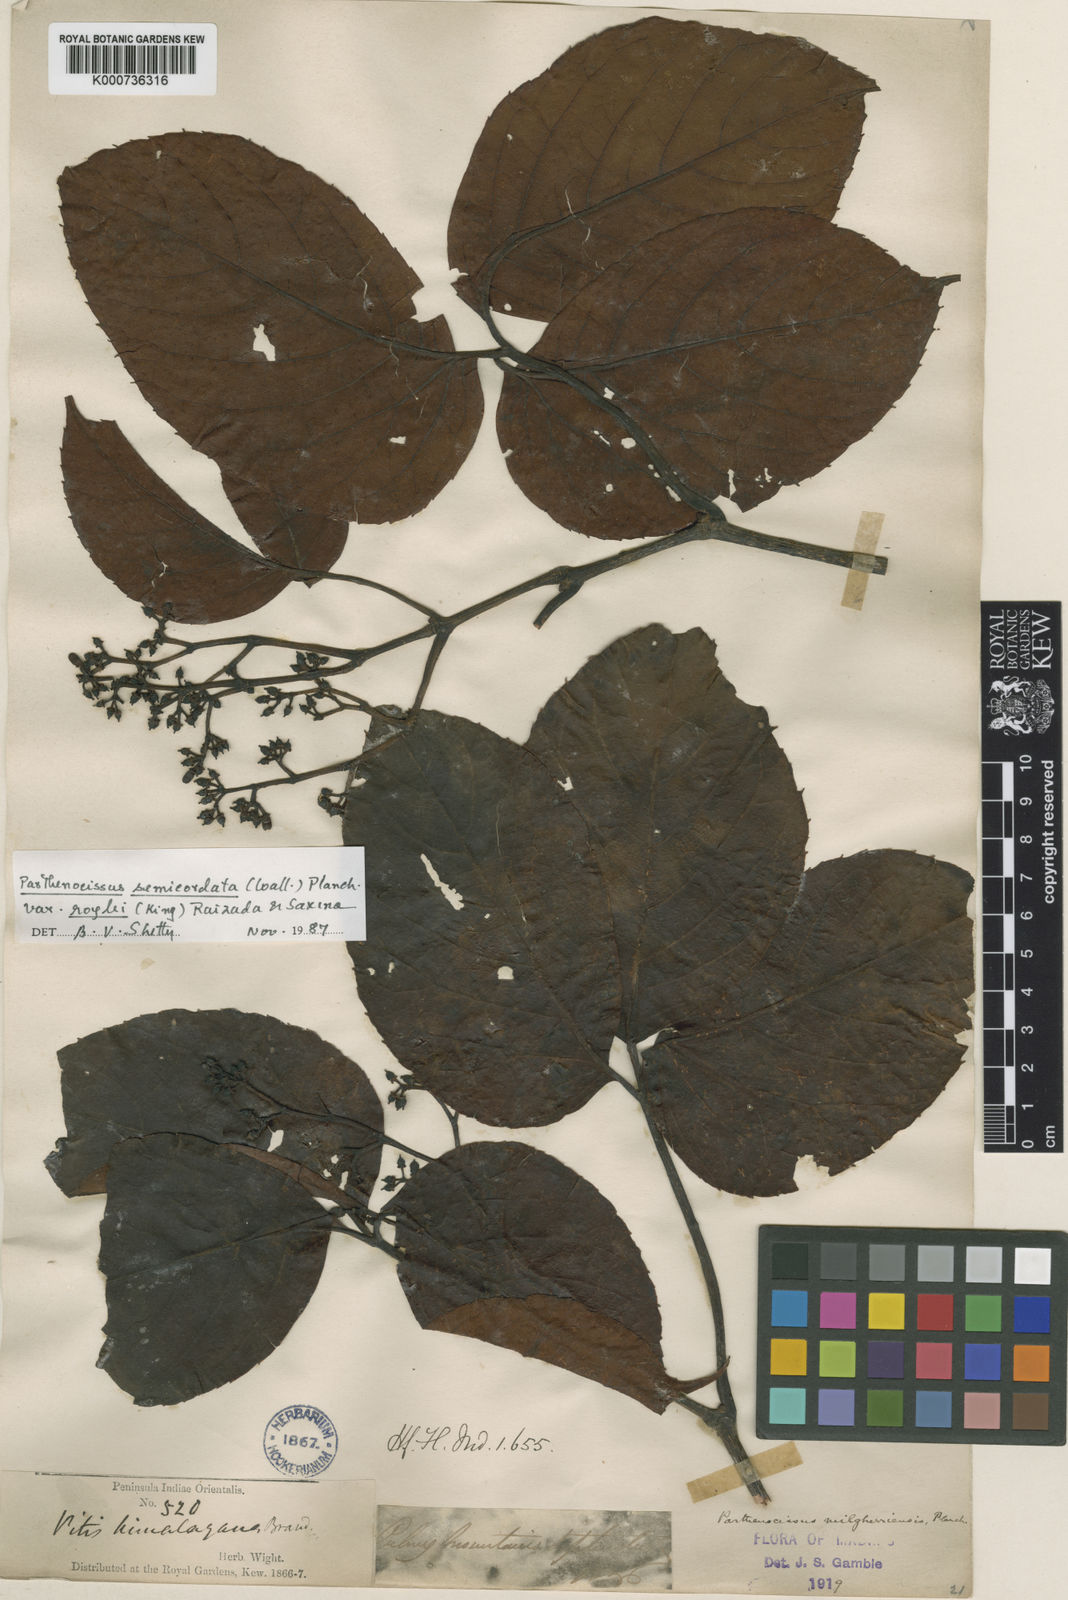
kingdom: Plantae
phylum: Tracheophyta
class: Magnoliopsida
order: Vitales
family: Vitaceae
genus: Parthenocissus
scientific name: Parthenocissus semicordata
